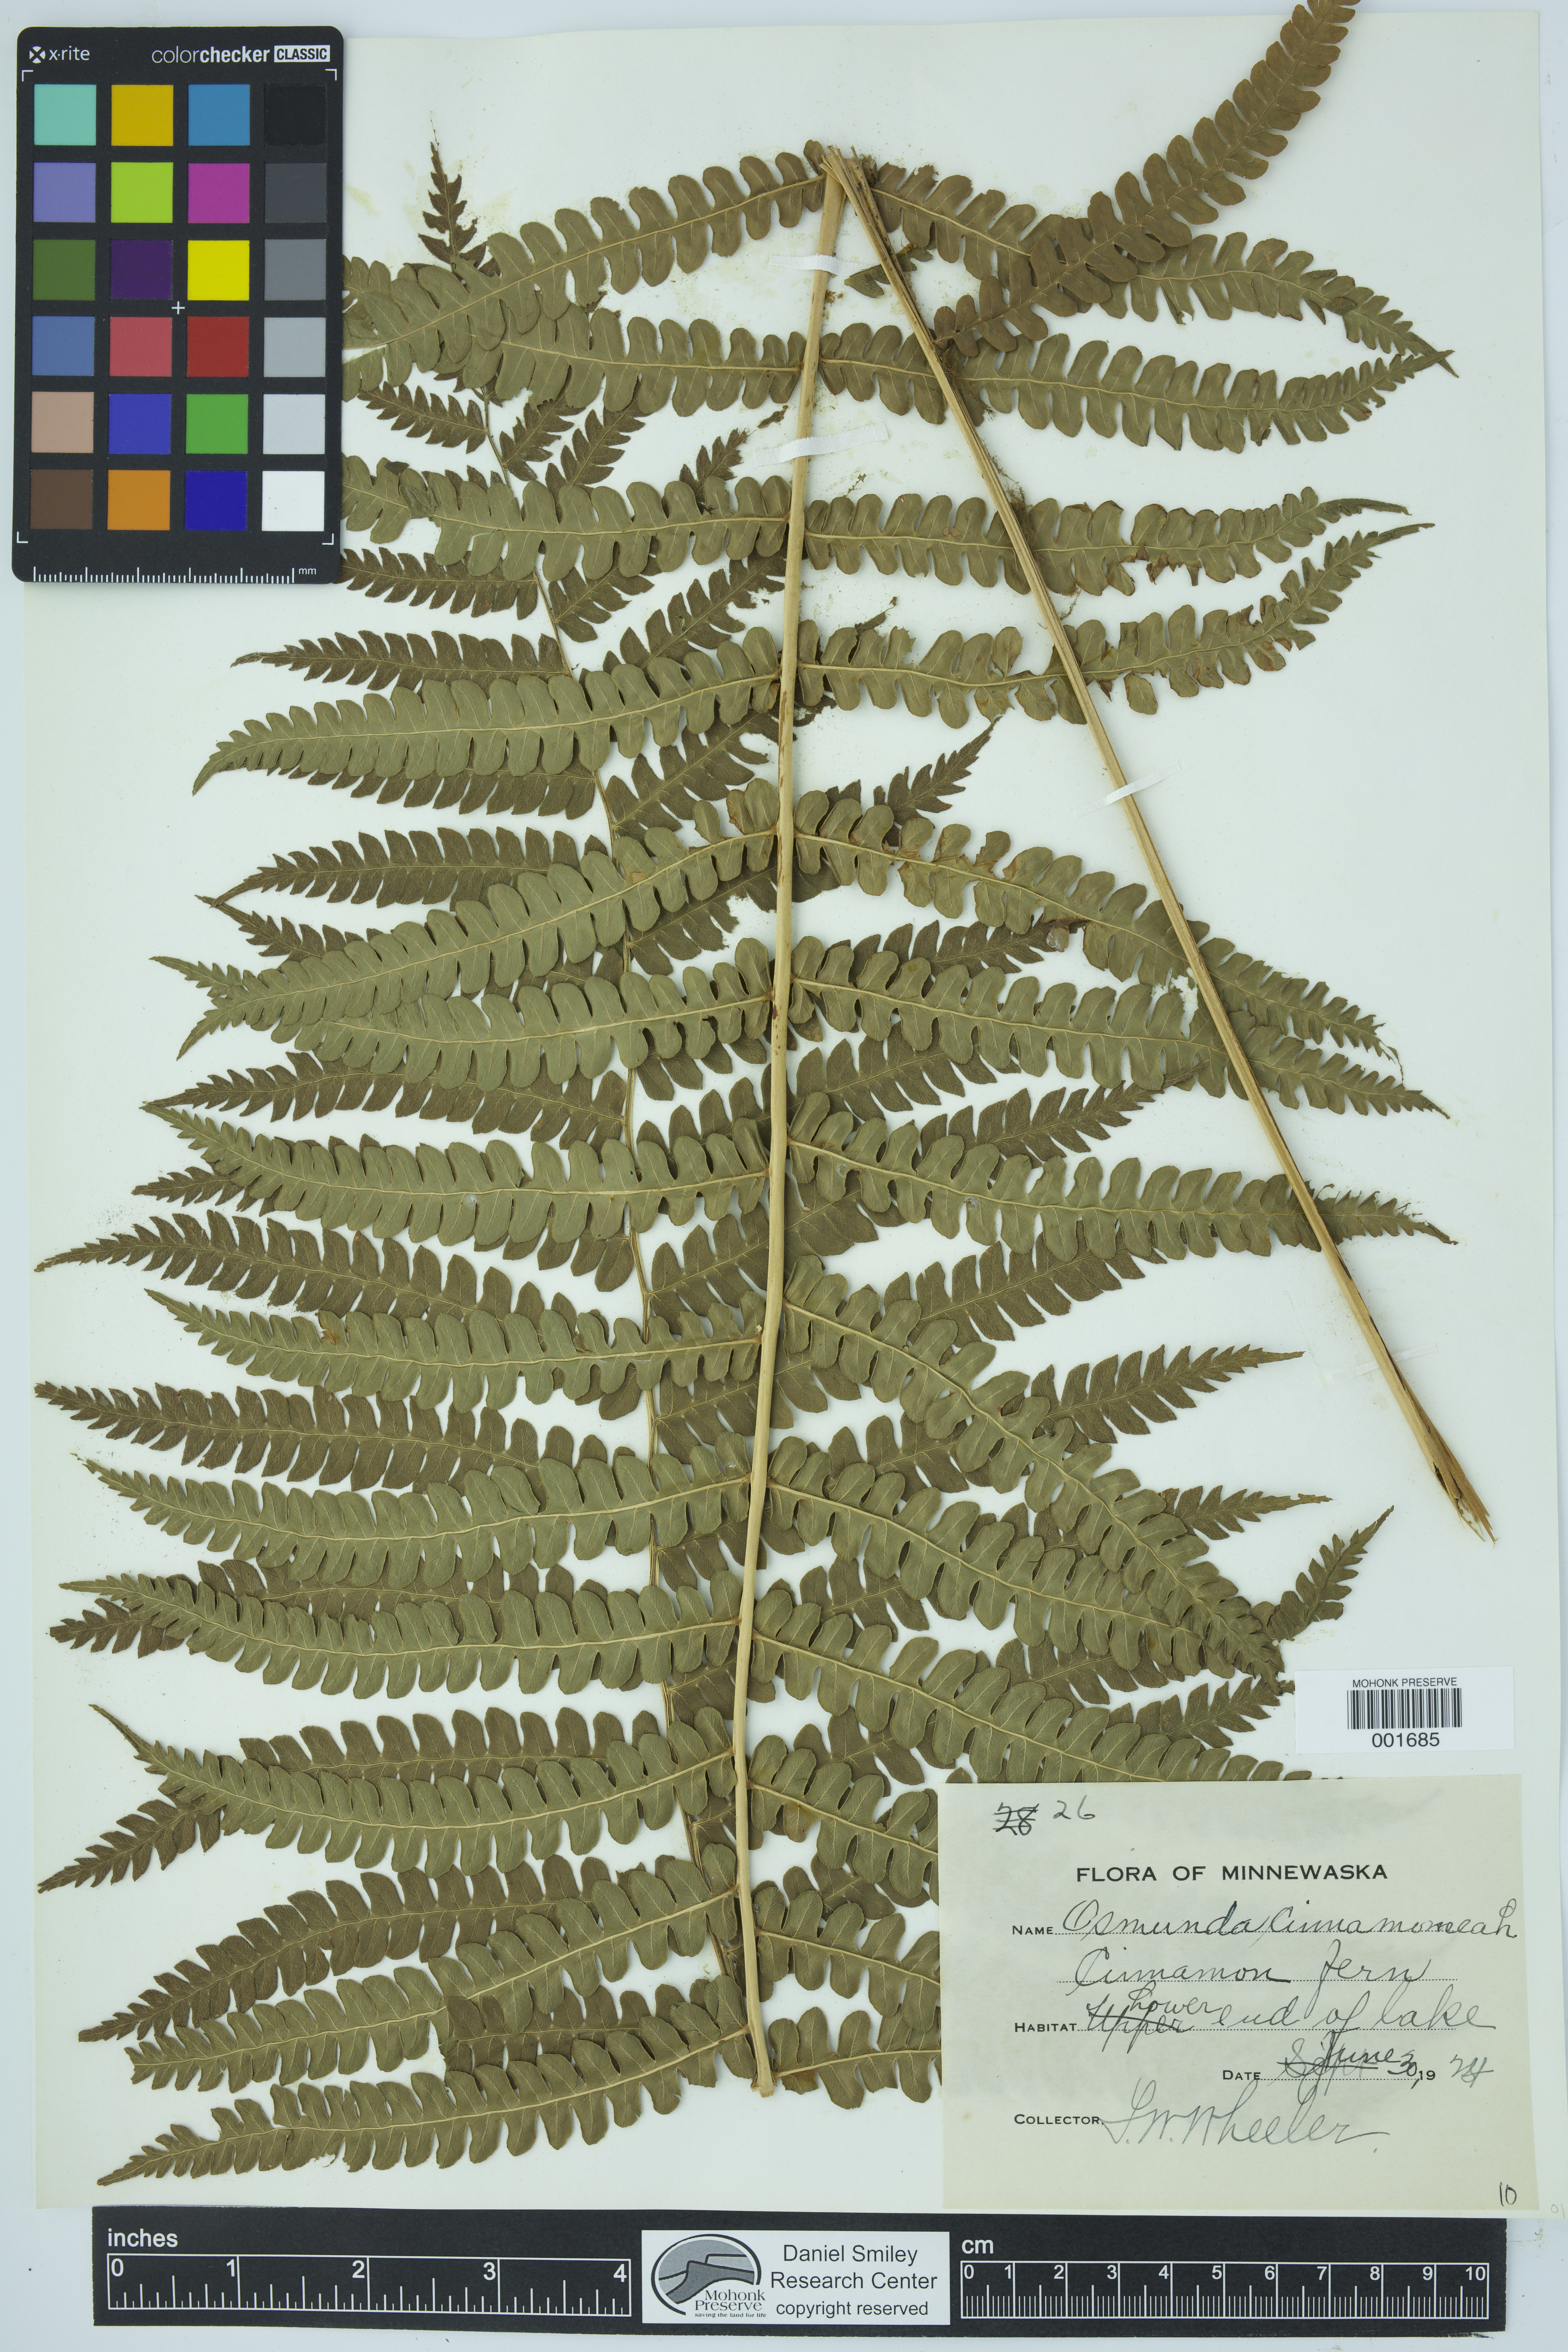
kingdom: Plantae
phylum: Tracheophyta
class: Polypodiopsida
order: Osmundales
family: Osmundaceae
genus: Osmundastrum
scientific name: Osmundastrum cinnamomeum
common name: Cinnamon fern
